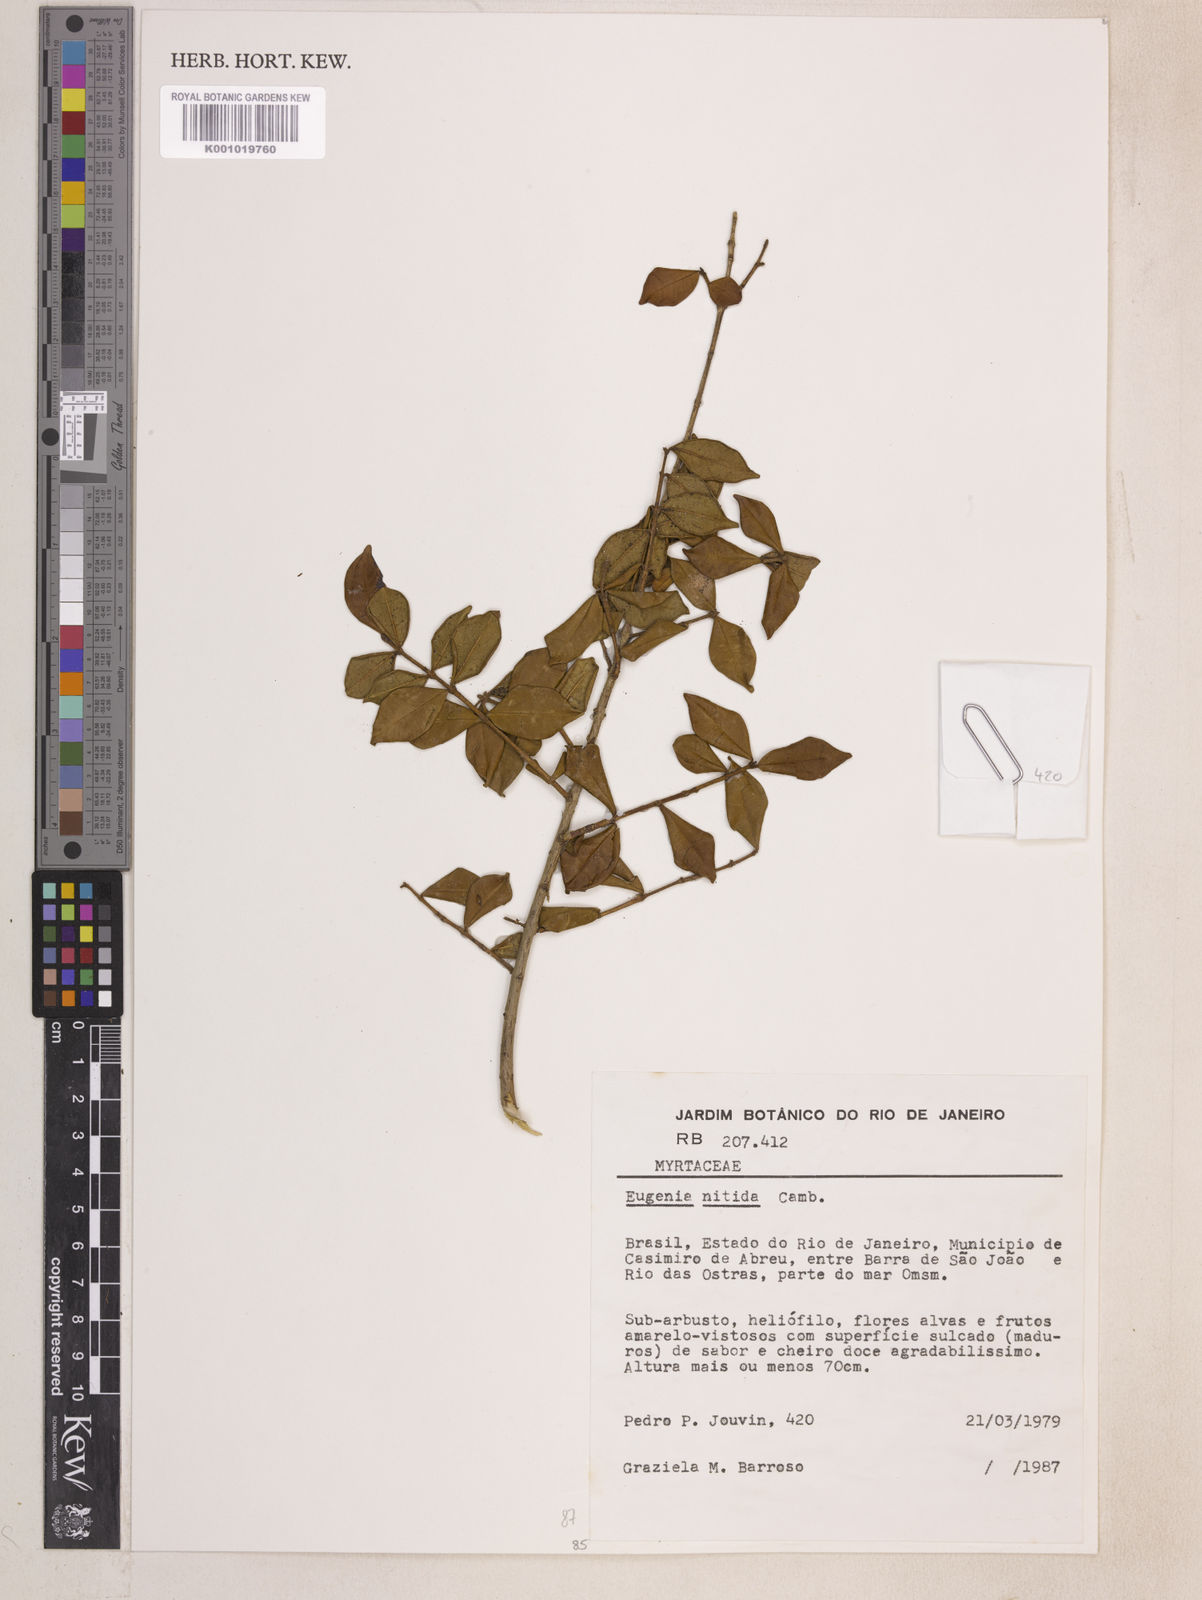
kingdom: Plantae
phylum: Tracheophyta
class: Magnoliopsida
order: Myrtales
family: Myrtaceae
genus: Eugenia
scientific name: Eugenia selloi
